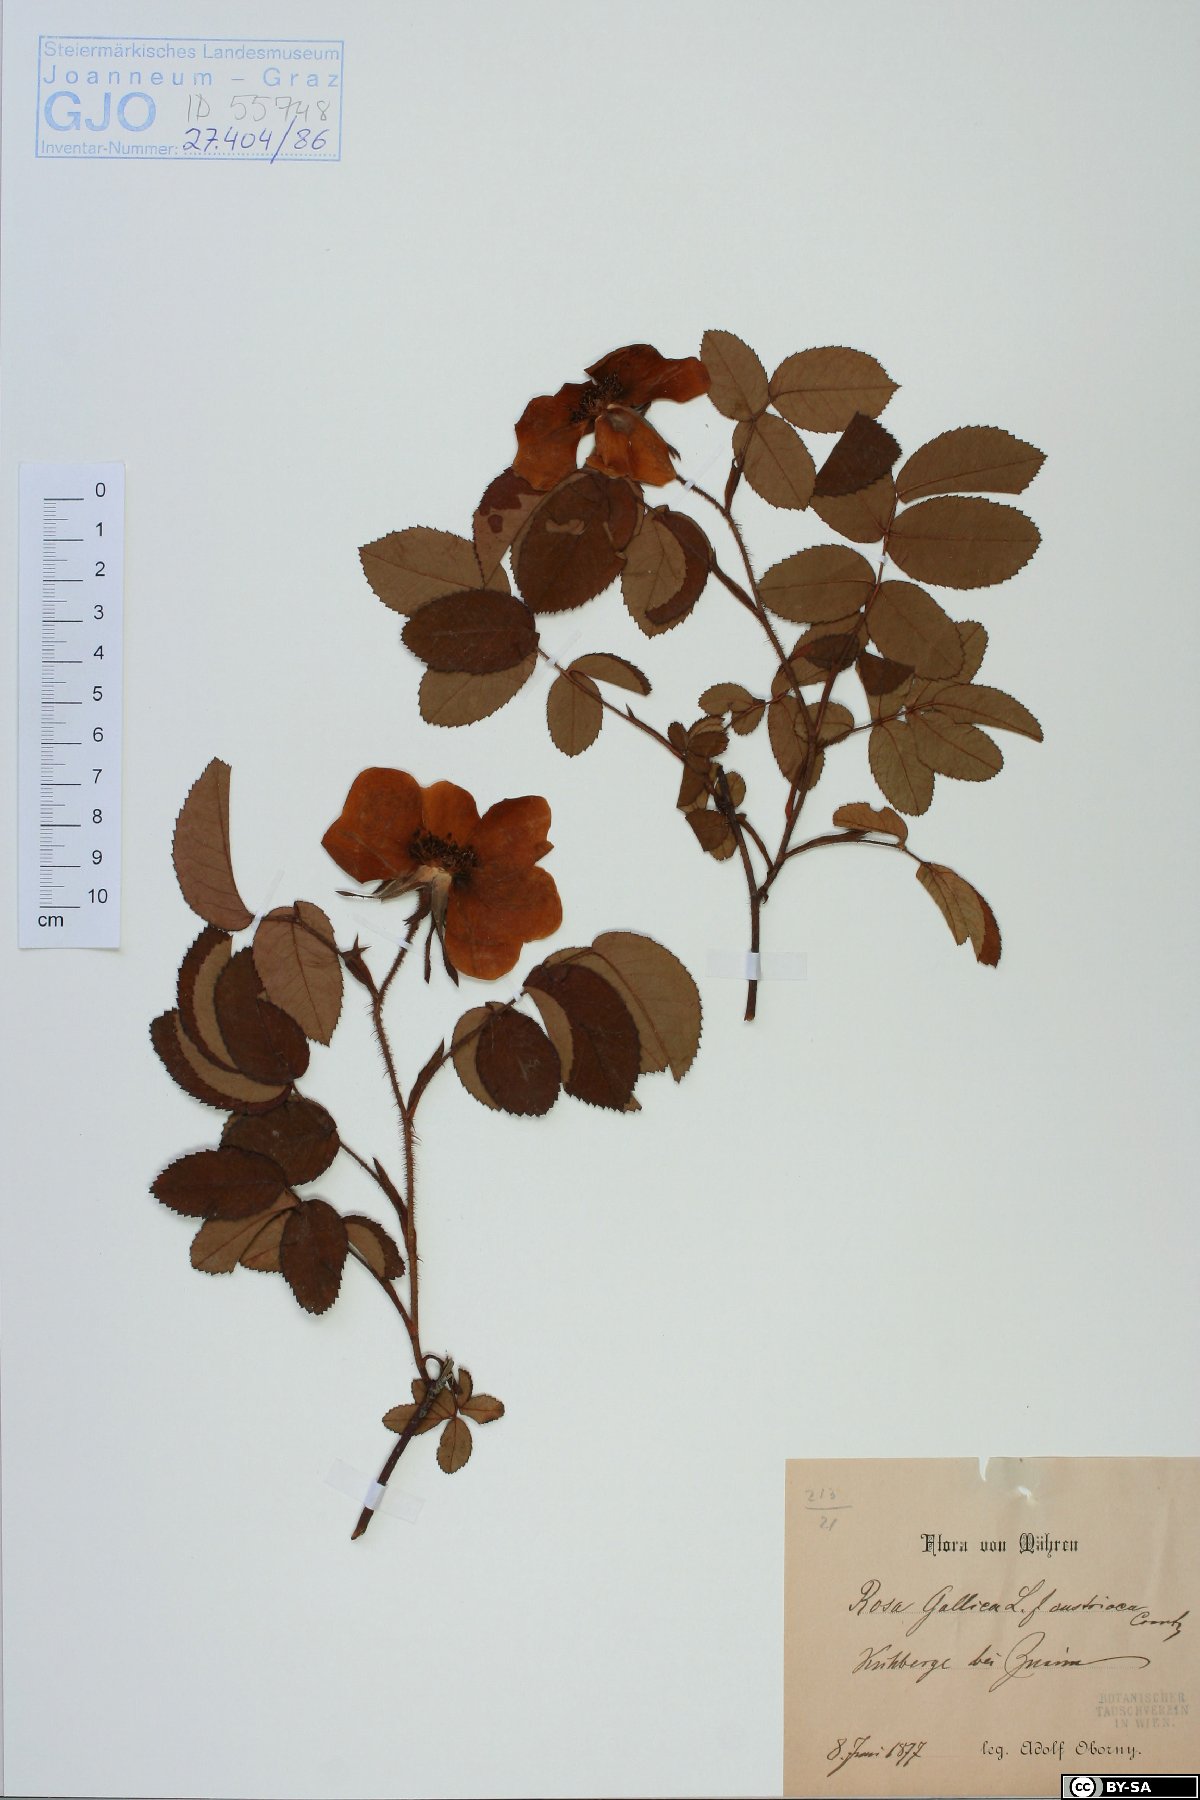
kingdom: Plantae
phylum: Tracheophyta
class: Magnoliopsida
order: Rosales
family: Rosaceae
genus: Rosa
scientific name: Rosa gallica
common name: French rose
